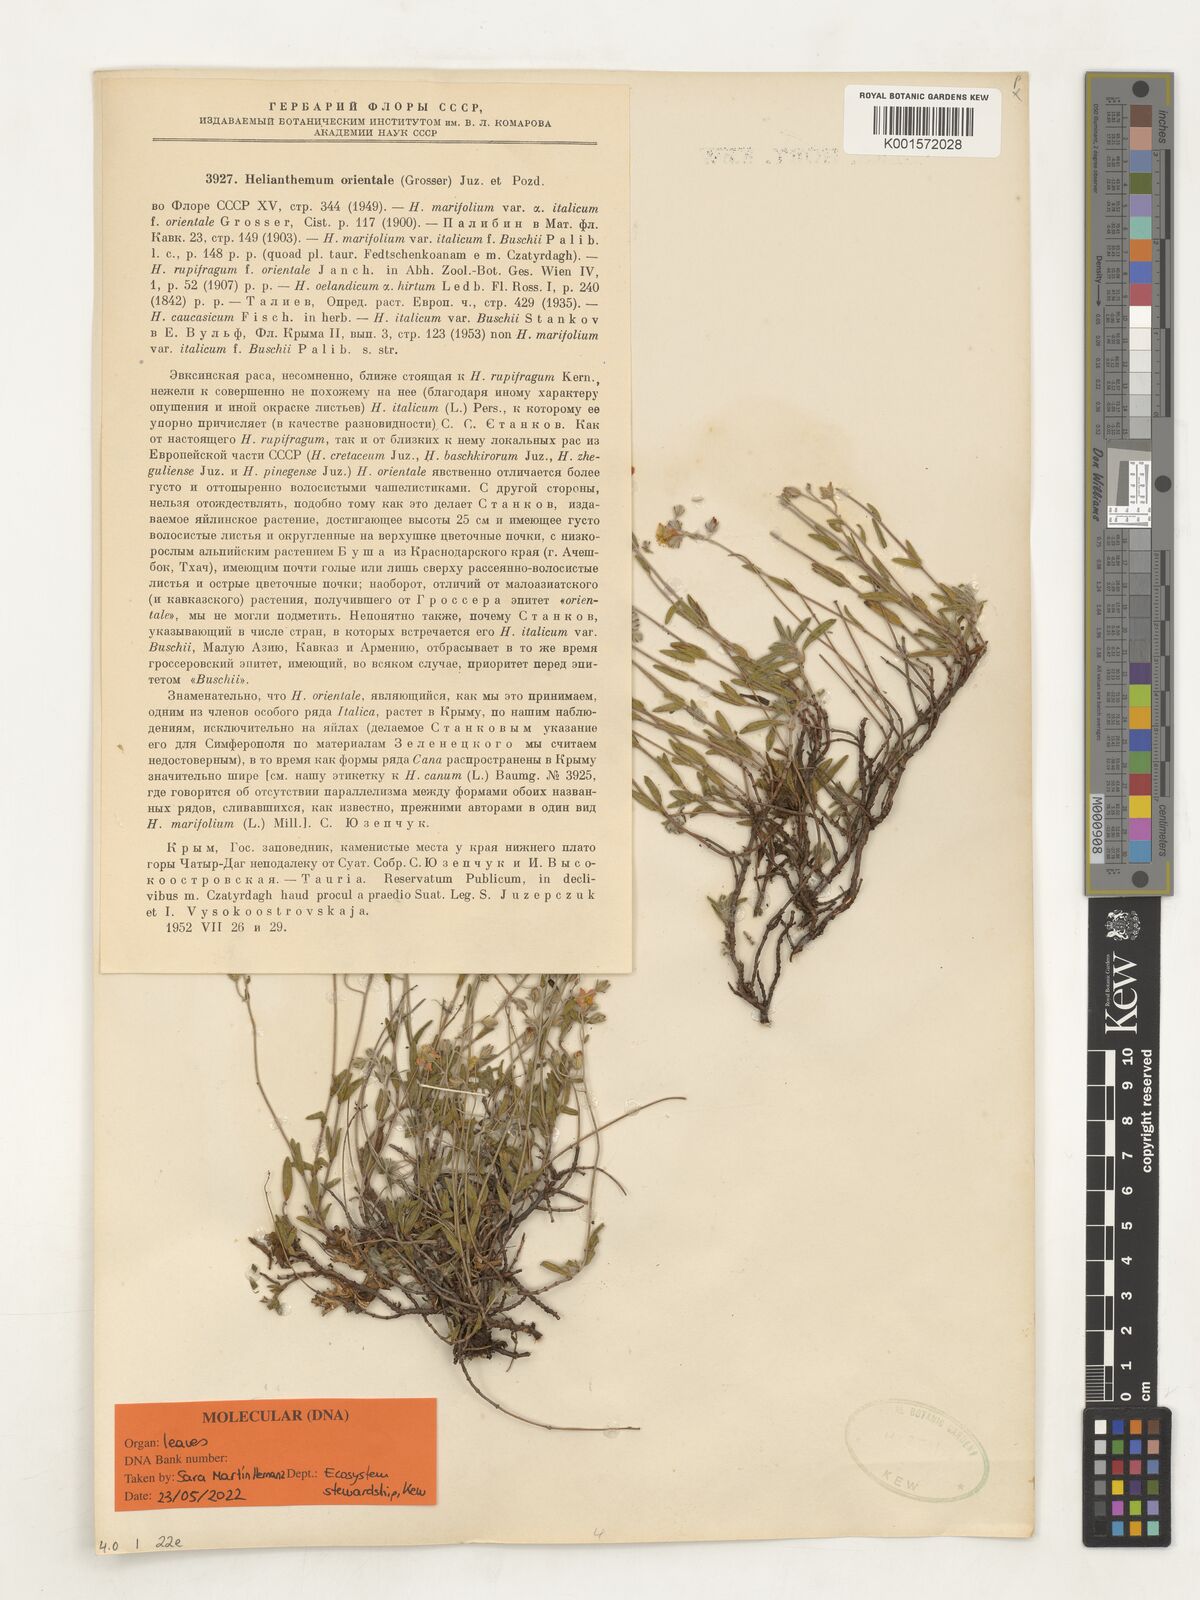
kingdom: Plantae
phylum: Tracheophyta
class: Magnoliopsida
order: Malvales
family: Cistaceae
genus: Helianthemum
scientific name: Helianthemum orientale
